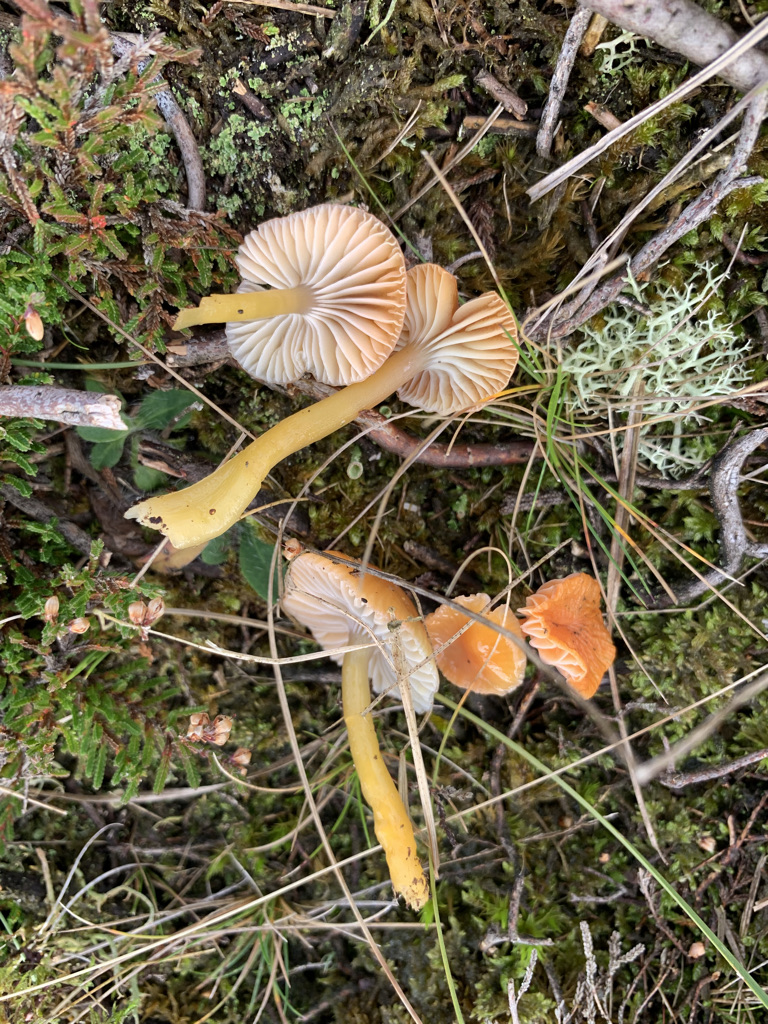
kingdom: Fungi
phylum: Basidiomycota
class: Agaricomycetes
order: Agaricales
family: Hygrophoraceae
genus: Gliophorus
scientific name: Gliophorus laetus
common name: brusk-vokshat
